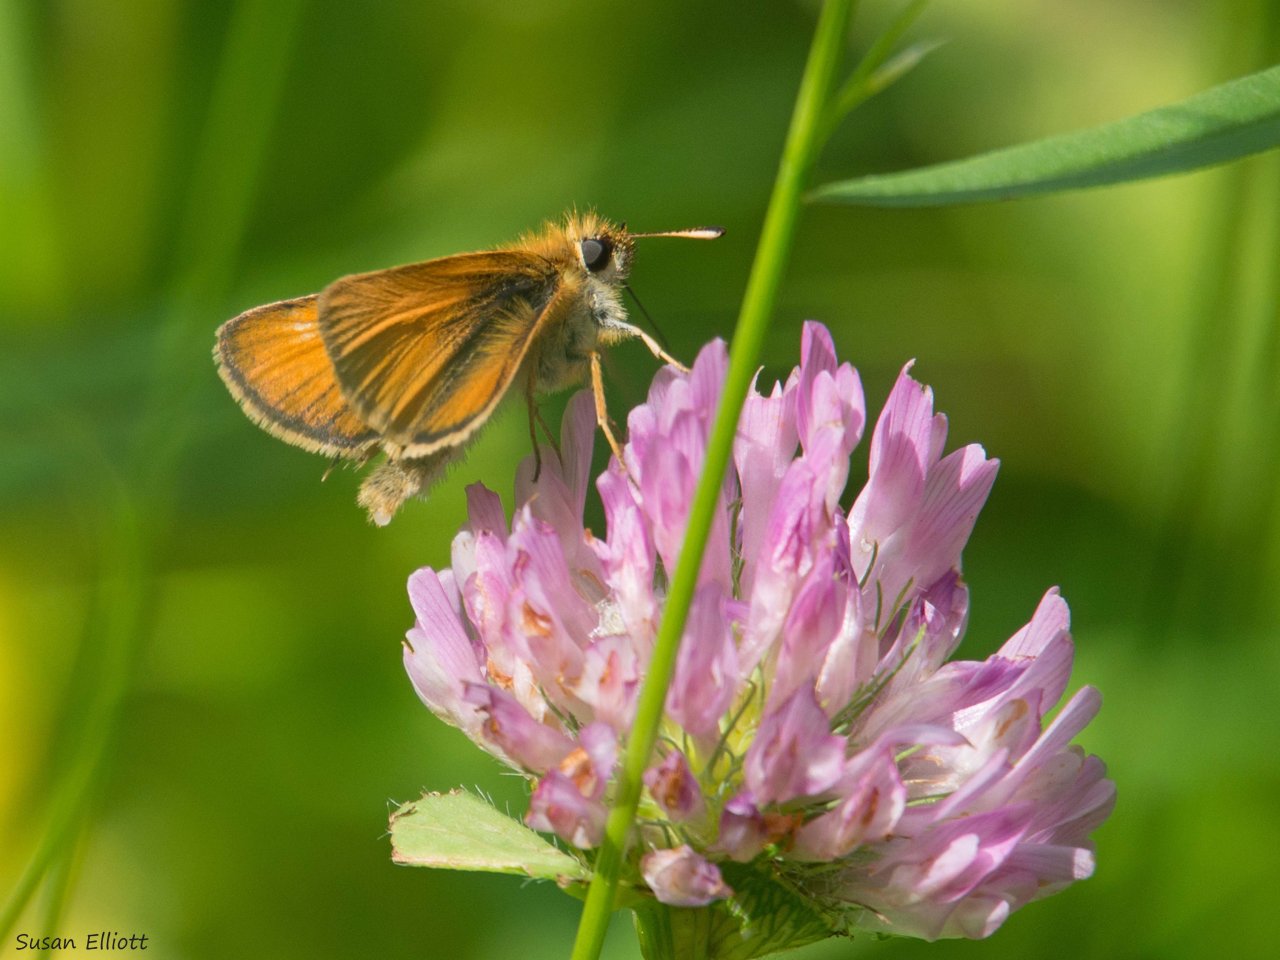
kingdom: Animalia
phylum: Arthropoda
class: Insecta
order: Lepidoptera
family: Hesperiidae
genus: Thymelicus
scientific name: Thymelicus lineola
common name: European Skipper
